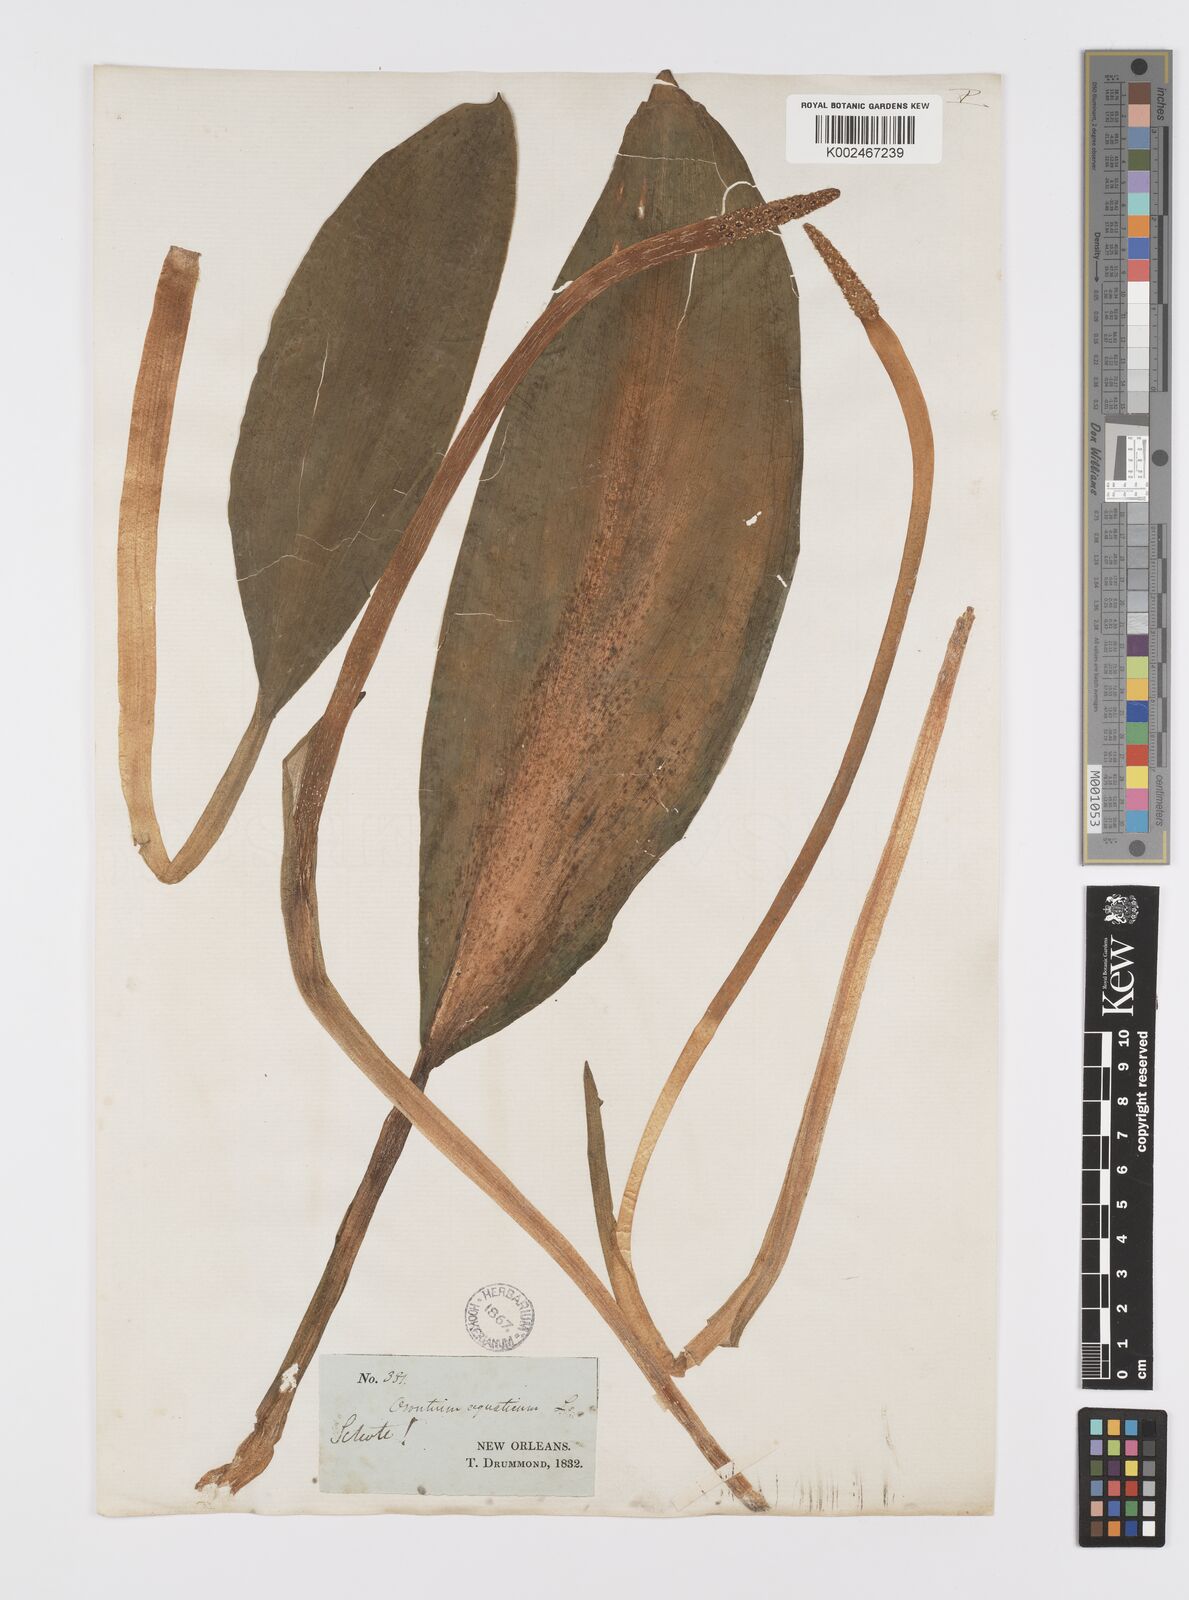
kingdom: Plantae
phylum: Tracheophyta
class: Liliopsida
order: Alismatales
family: Araceae
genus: Orontium
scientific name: Orontium aquaticum
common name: Golden-club
